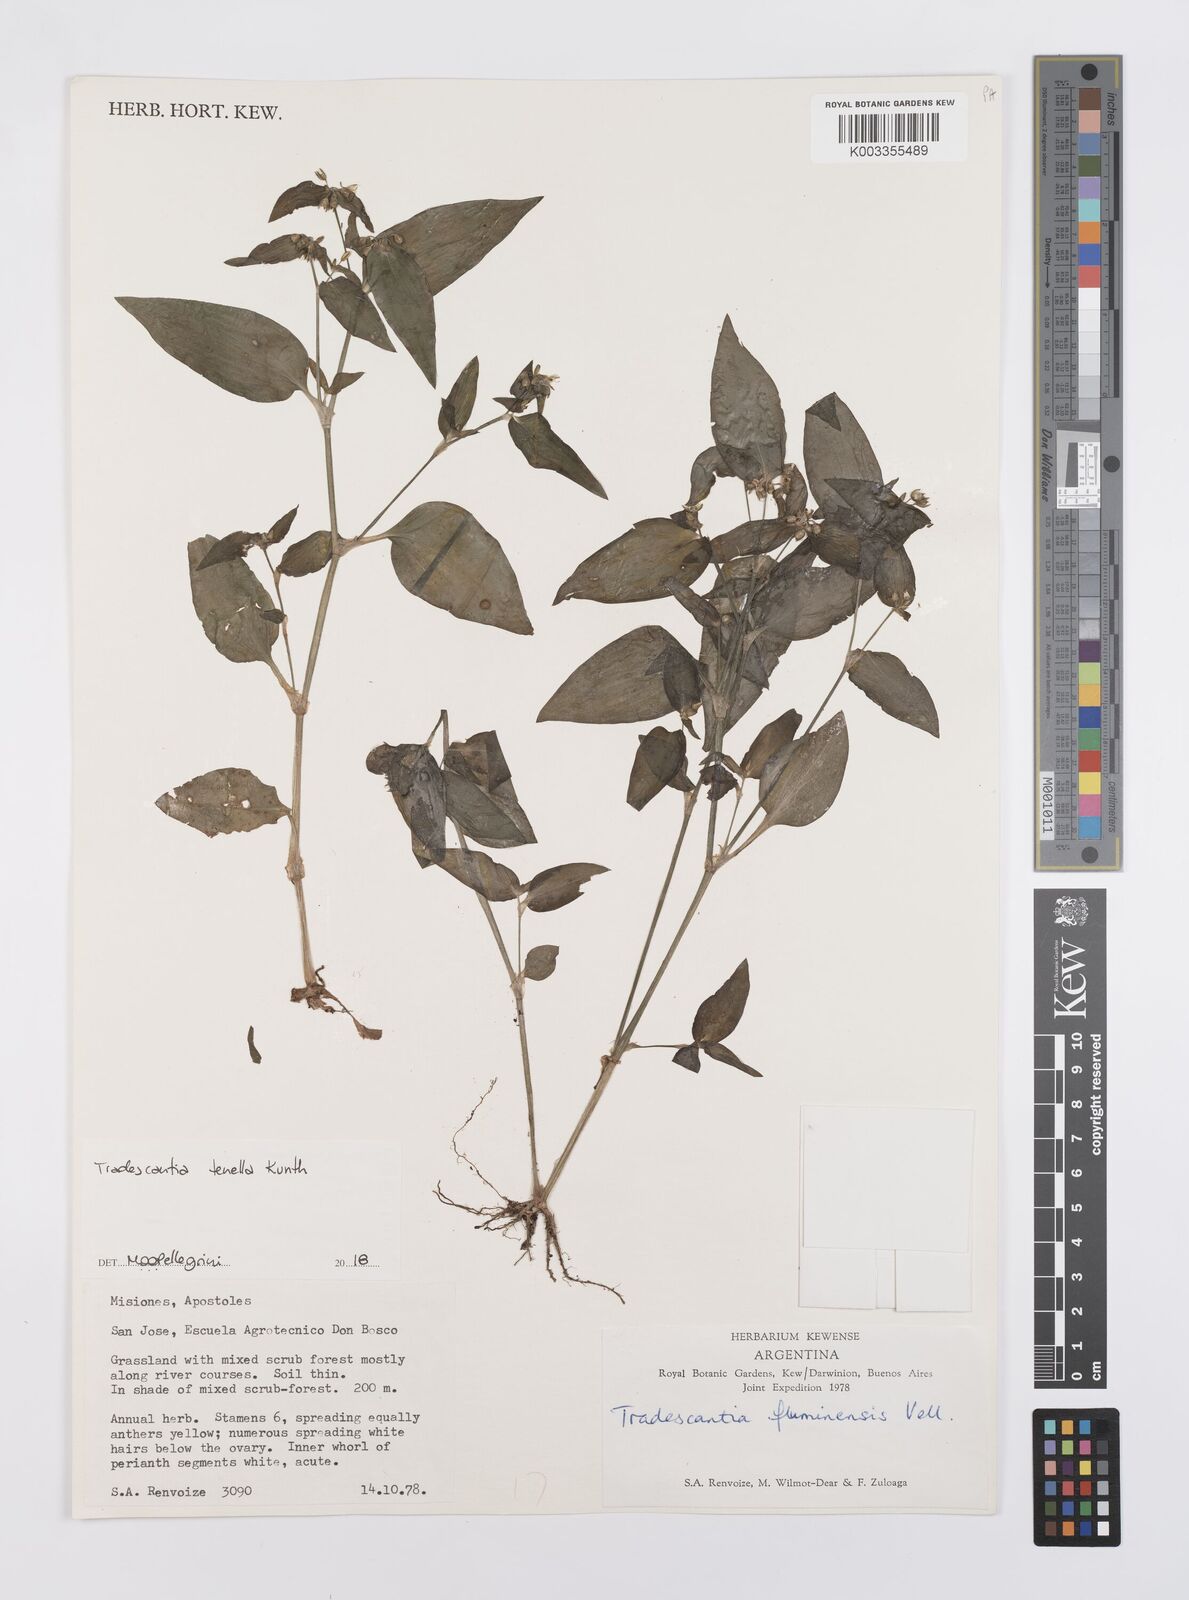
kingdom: Plantae
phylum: Tracheophyta
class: Liliopsida
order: Commelinales
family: Commelinaceae
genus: Tradescantia
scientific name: Tradescantia tenella
